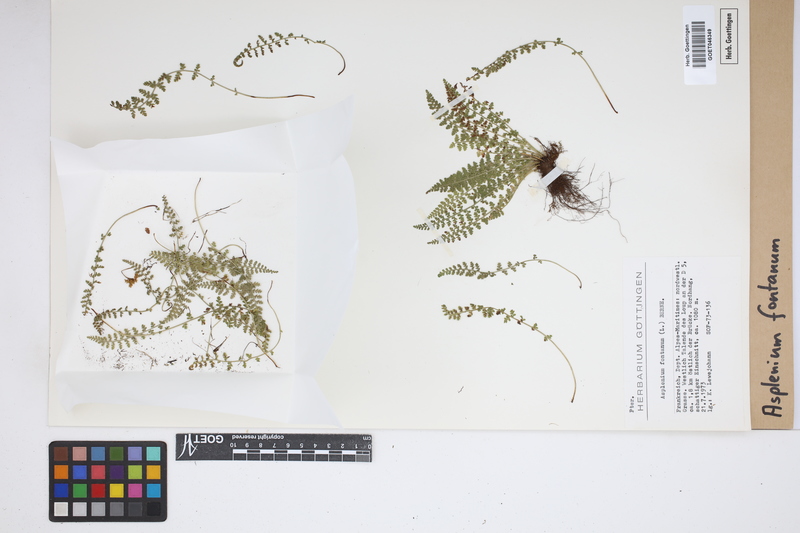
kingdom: Plantae
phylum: Tracheophyta
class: Polypodiopsida
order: Polypodiales
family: Aspleniaceae
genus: Asplenium
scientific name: Asplenium fontanum
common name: Fountain spleenwort
